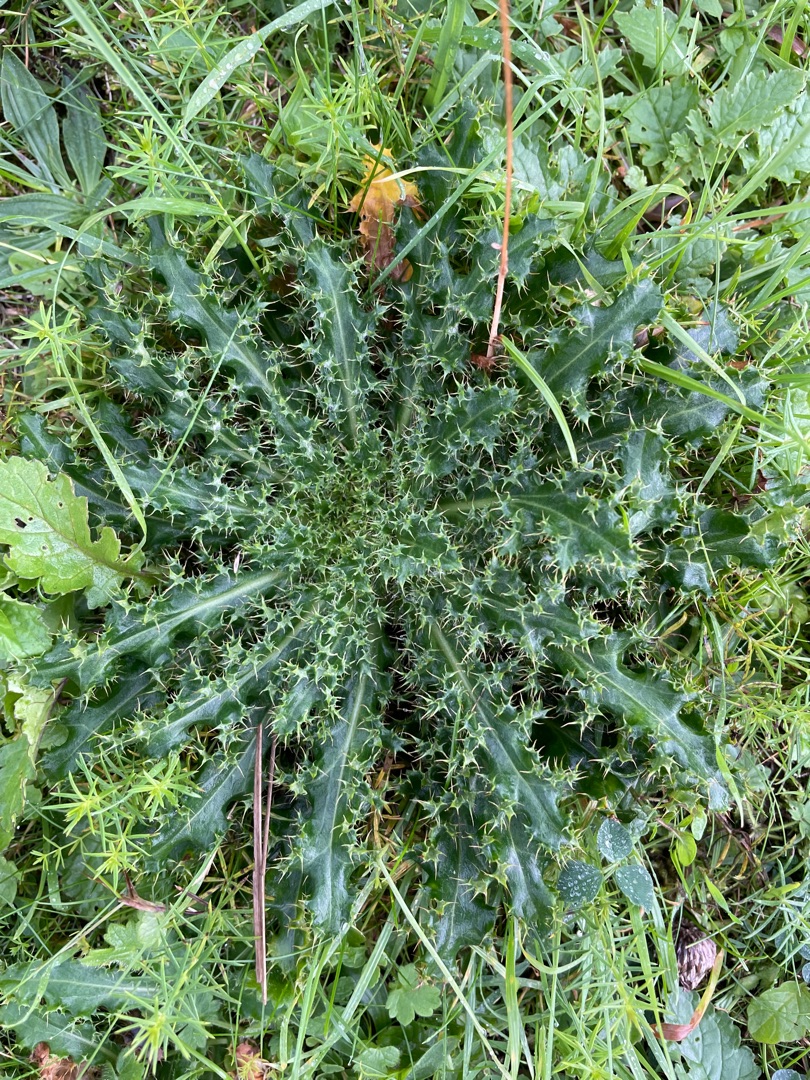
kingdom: Plantae
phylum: Tracheophyta
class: Magnoliopsida
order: Asterales
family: Asteraceae
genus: Cirsium
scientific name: Cirsium arvense
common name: Ager-tidsel
